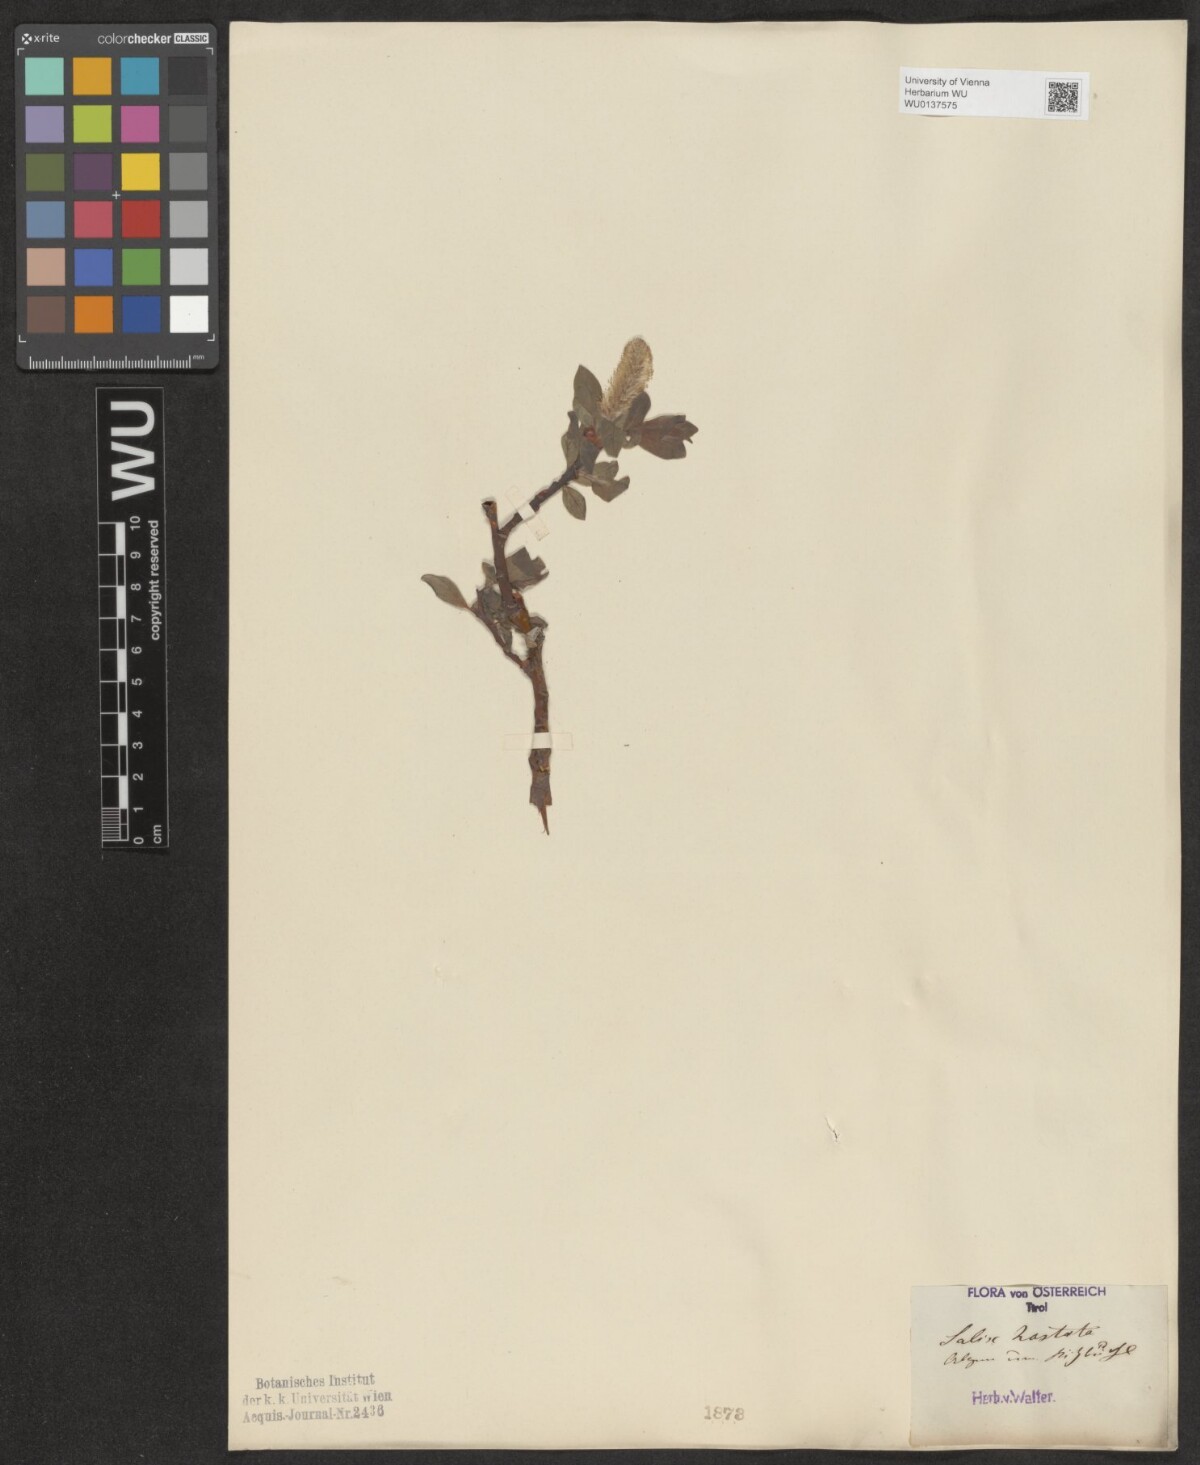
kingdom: Plantae
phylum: Tracheophyta
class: Magnoliopsida
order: Malpighiales
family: Salicaceae
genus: Salix
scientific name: Salix hastata
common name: Halberd willow
